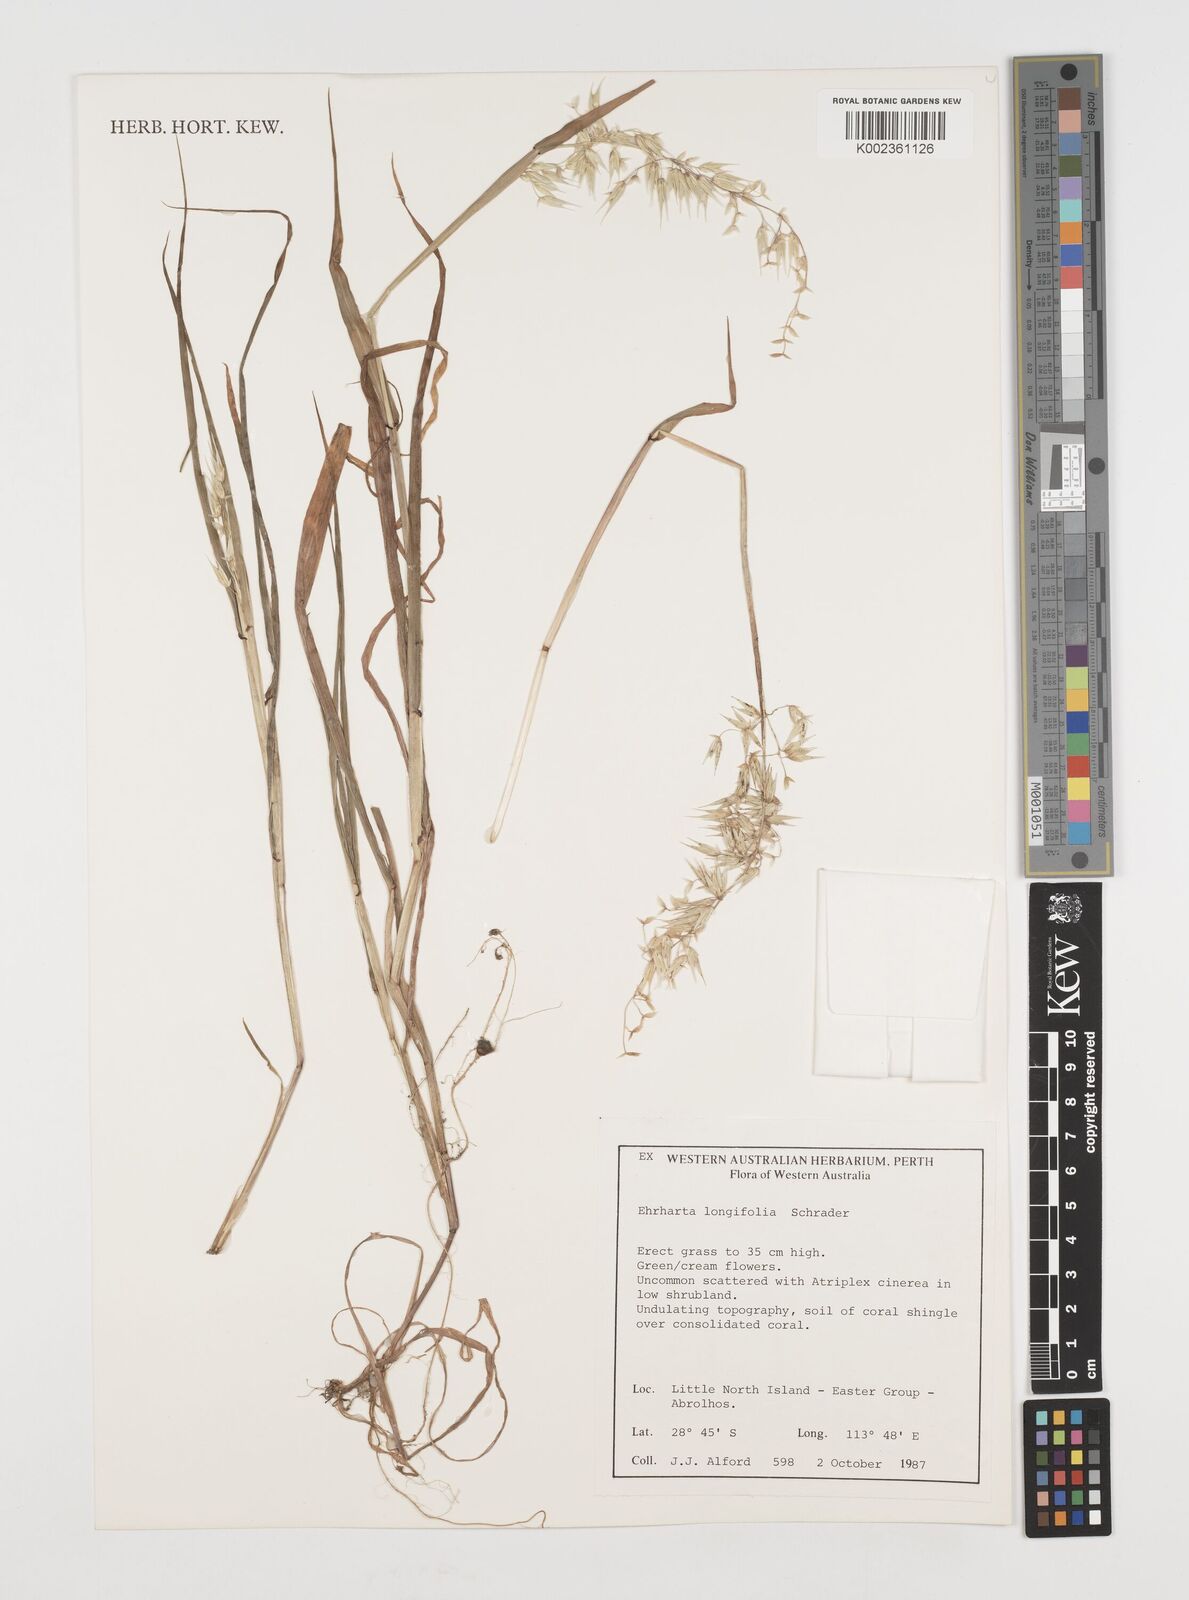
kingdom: Plantae
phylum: Tracheophyta
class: Liliopsida
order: Poales
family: Poaceae
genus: Ehrharta
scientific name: Ehrharta longiflora
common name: Longflowered veldtgrass
